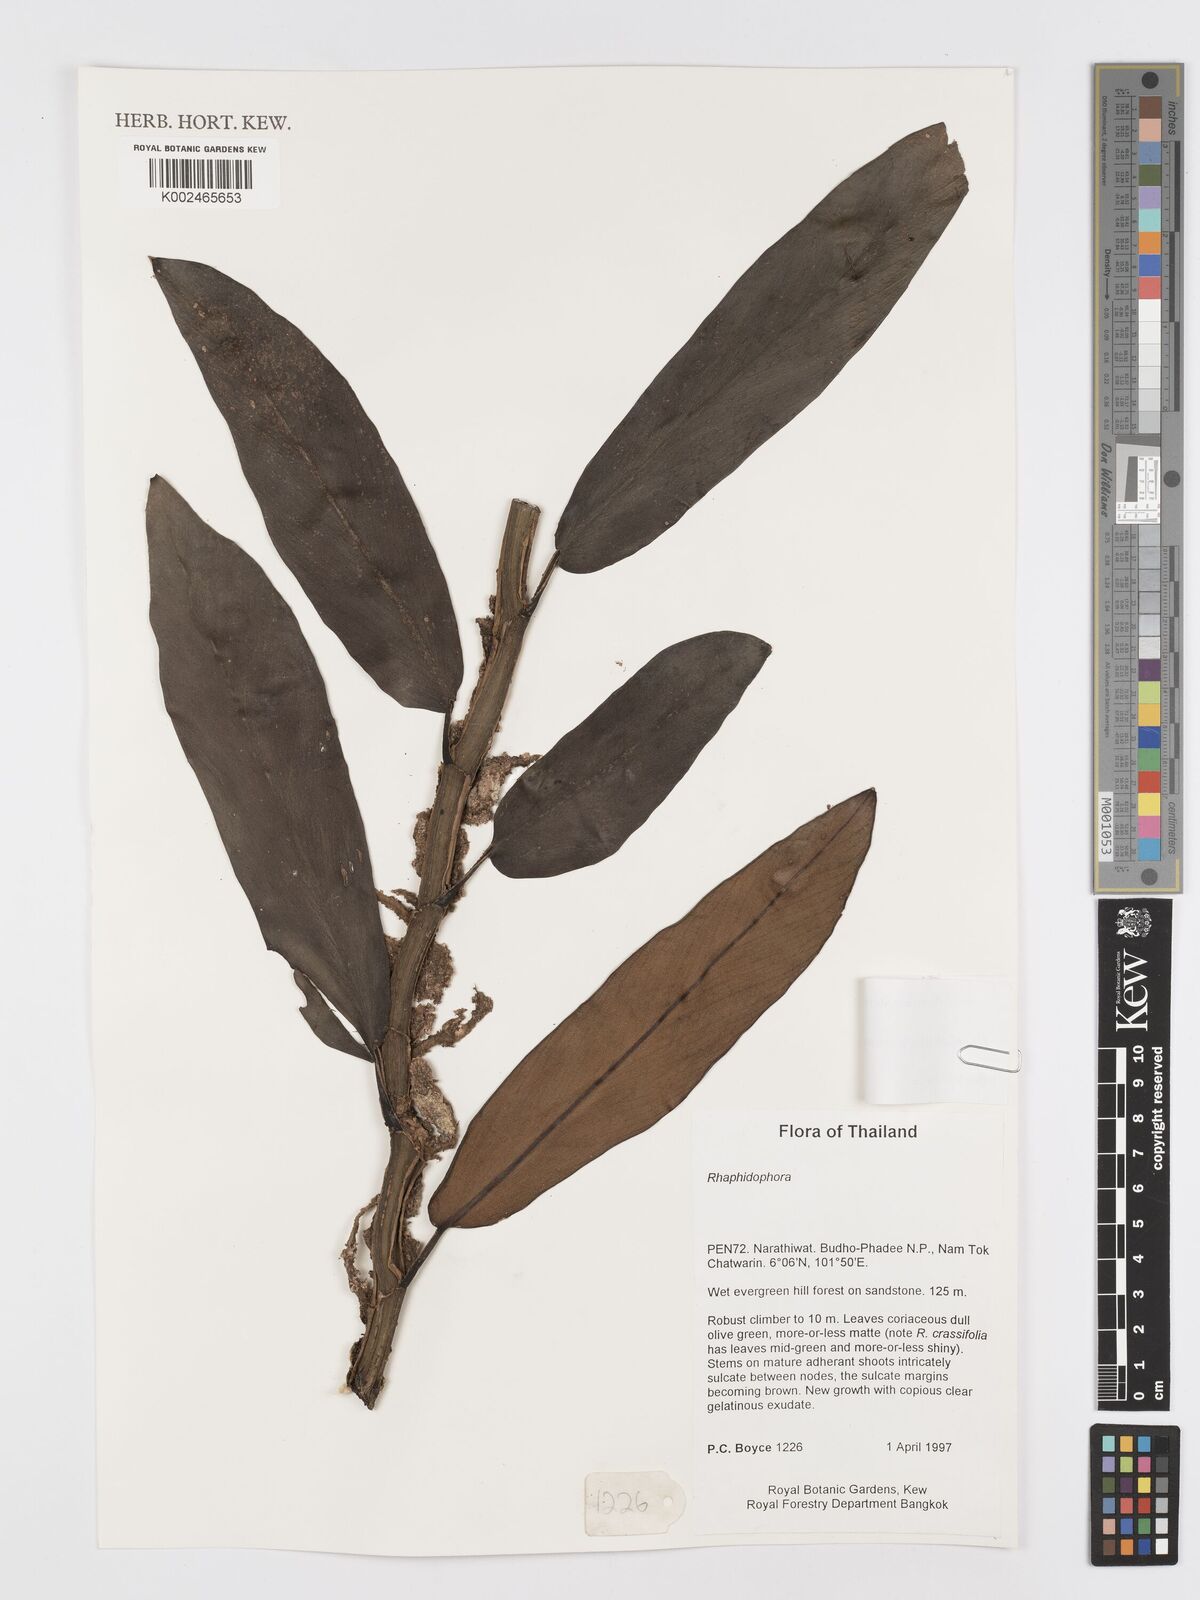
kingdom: Plantae
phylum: Tracheophyta
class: Liliopsida
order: Alismatales
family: Araceae
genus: Rhaphidophora
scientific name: Rhaphidophora crassifolia
